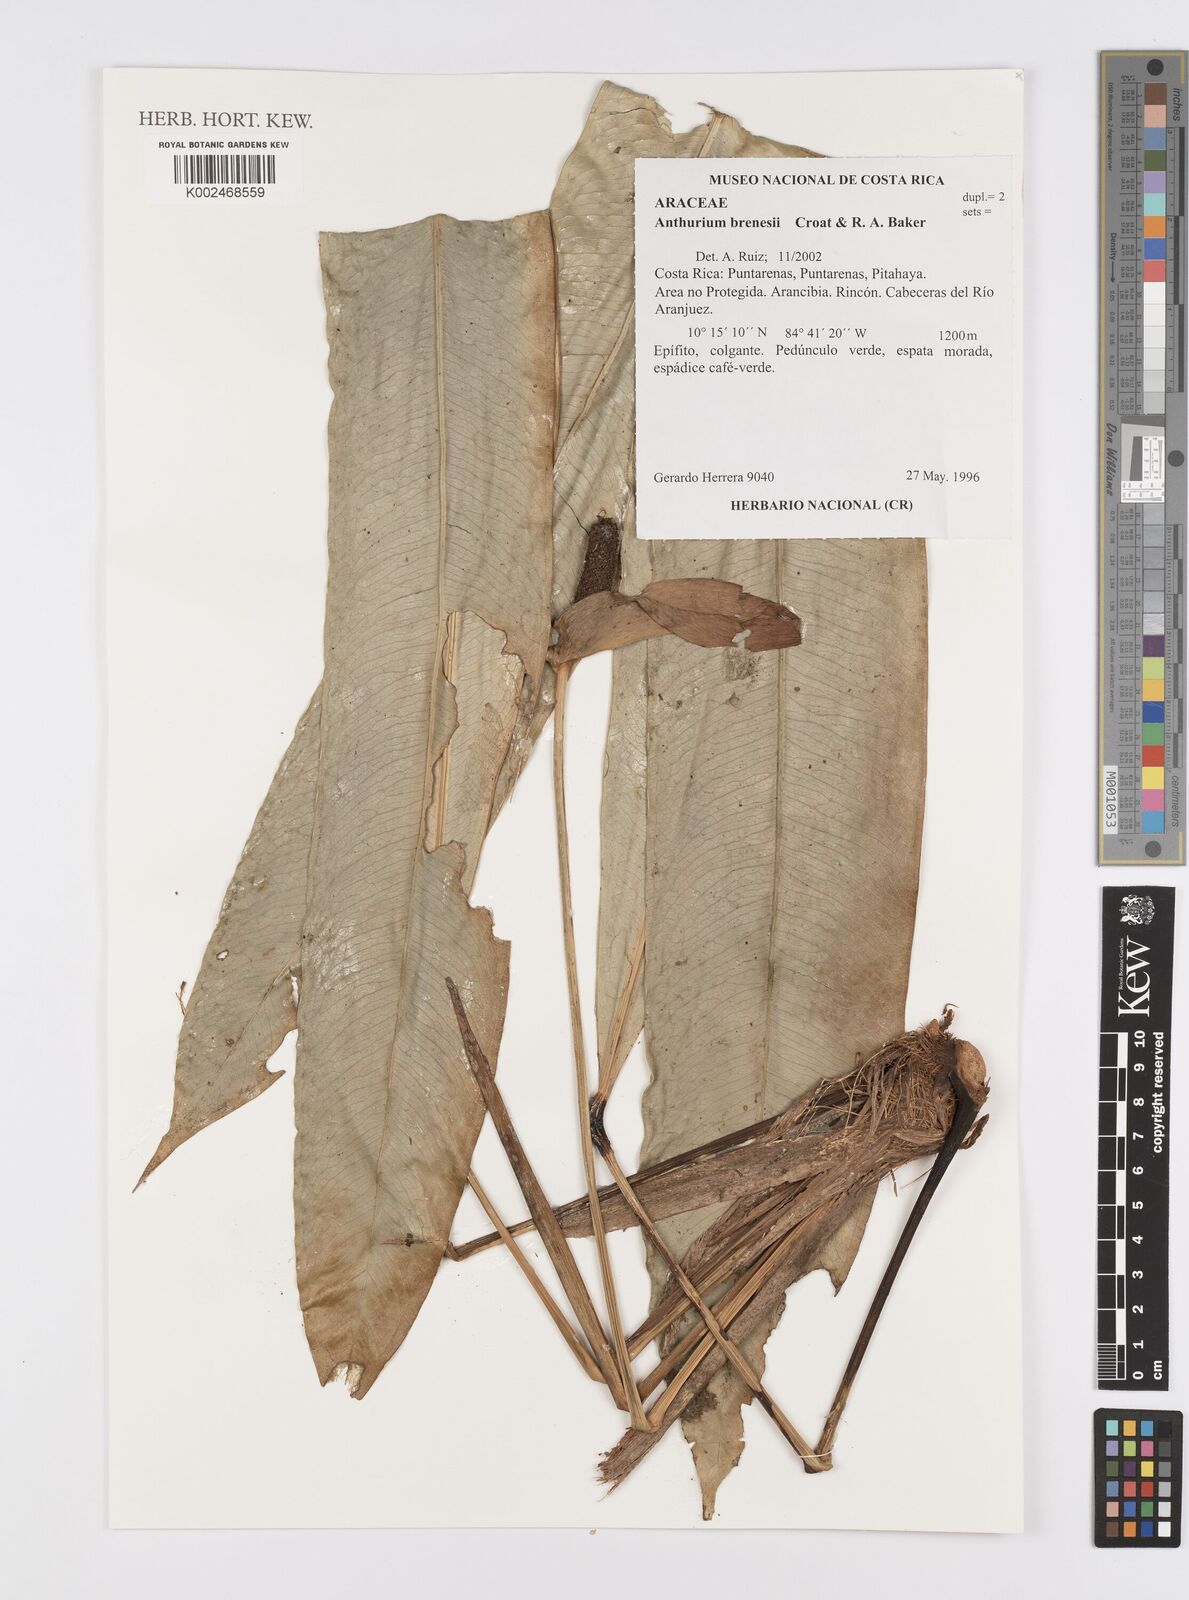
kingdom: Plantae
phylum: Tracheophyta
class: Liliopsida
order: Alismatales
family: Araceae
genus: Anthurium
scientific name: Anthurium brenesii
